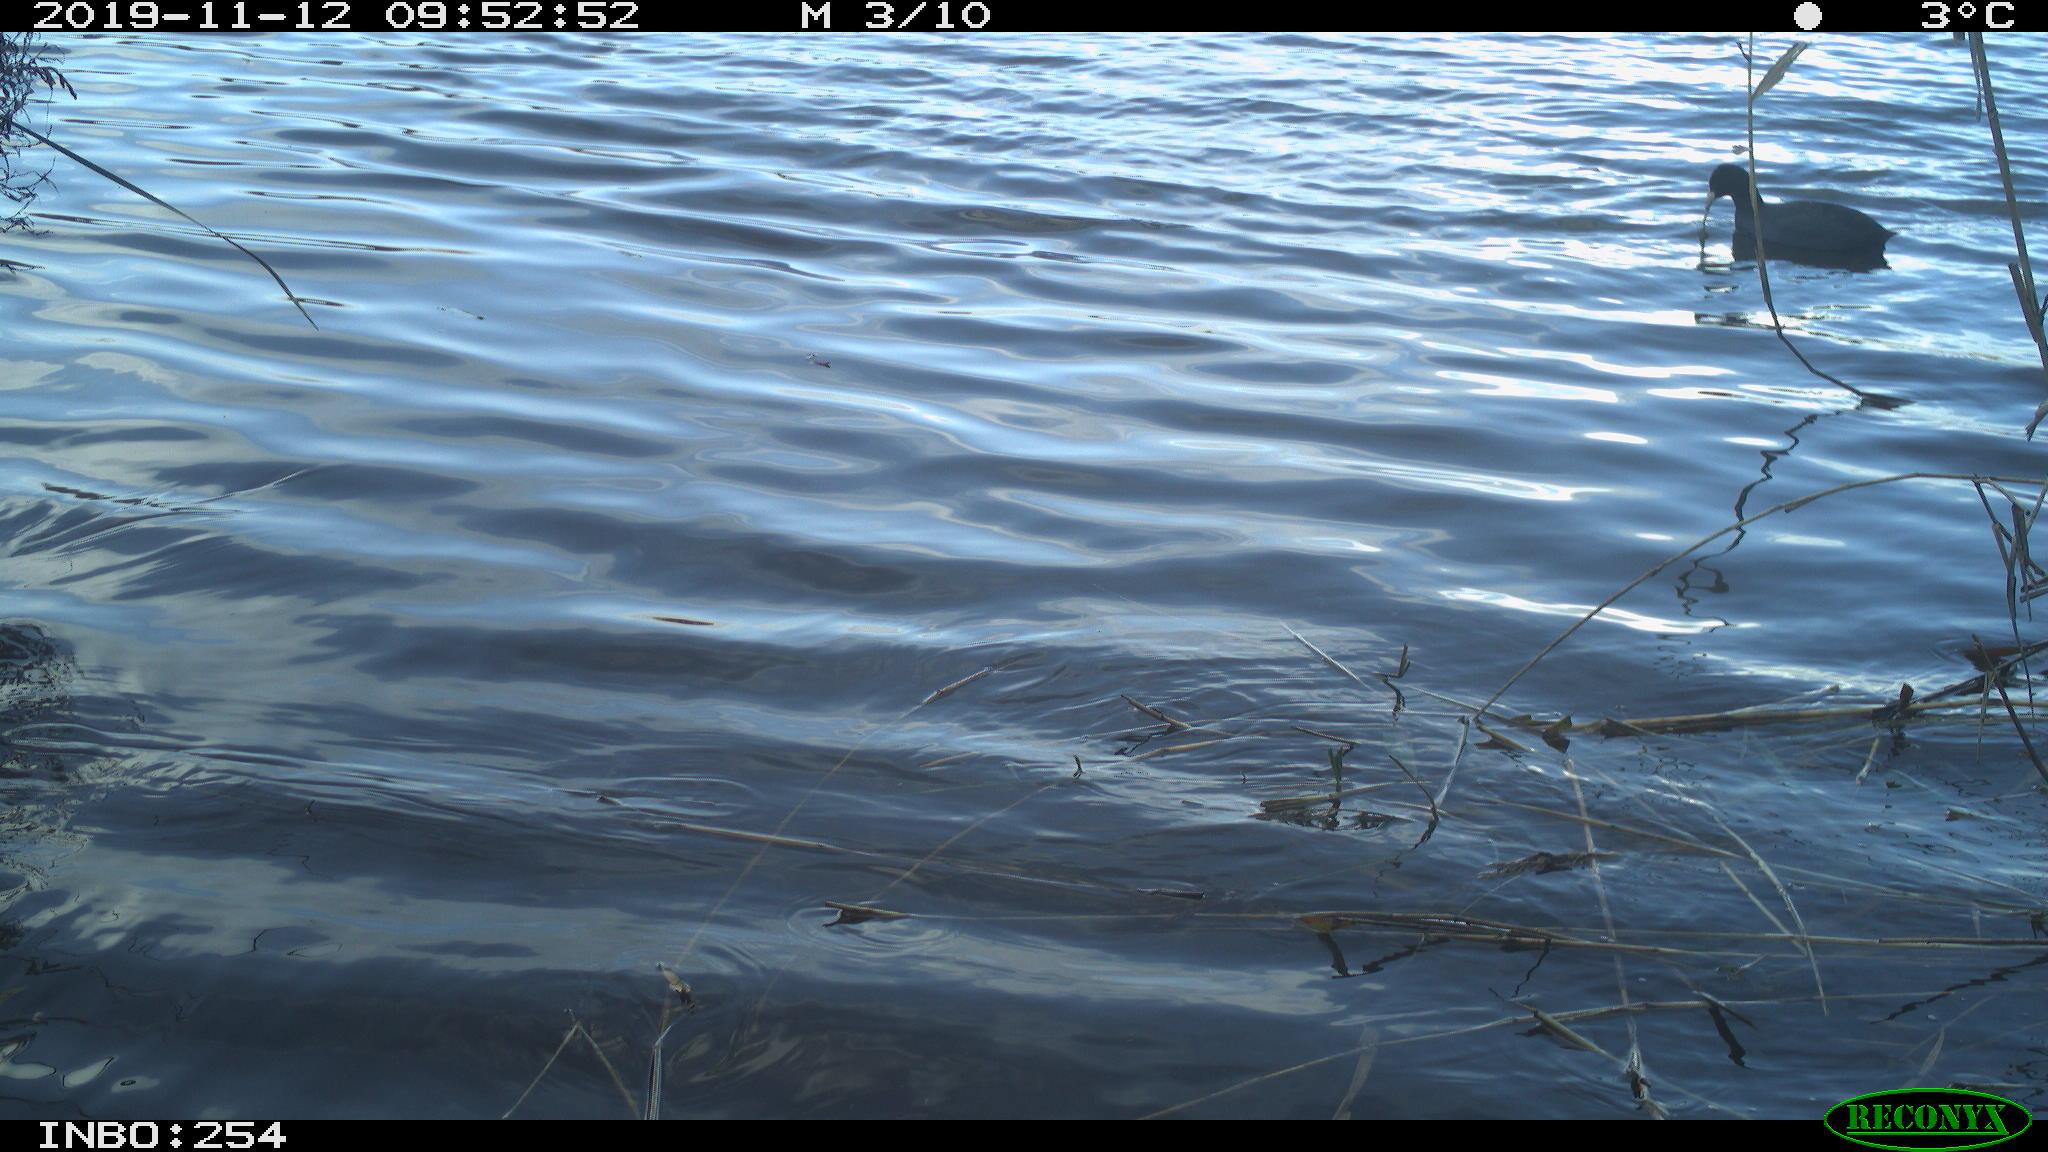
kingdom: Animalia
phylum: Chordata
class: Aves
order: Gruiformes
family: Rallidae
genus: Fulica
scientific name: Fulica atra
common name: Eurasian coot
